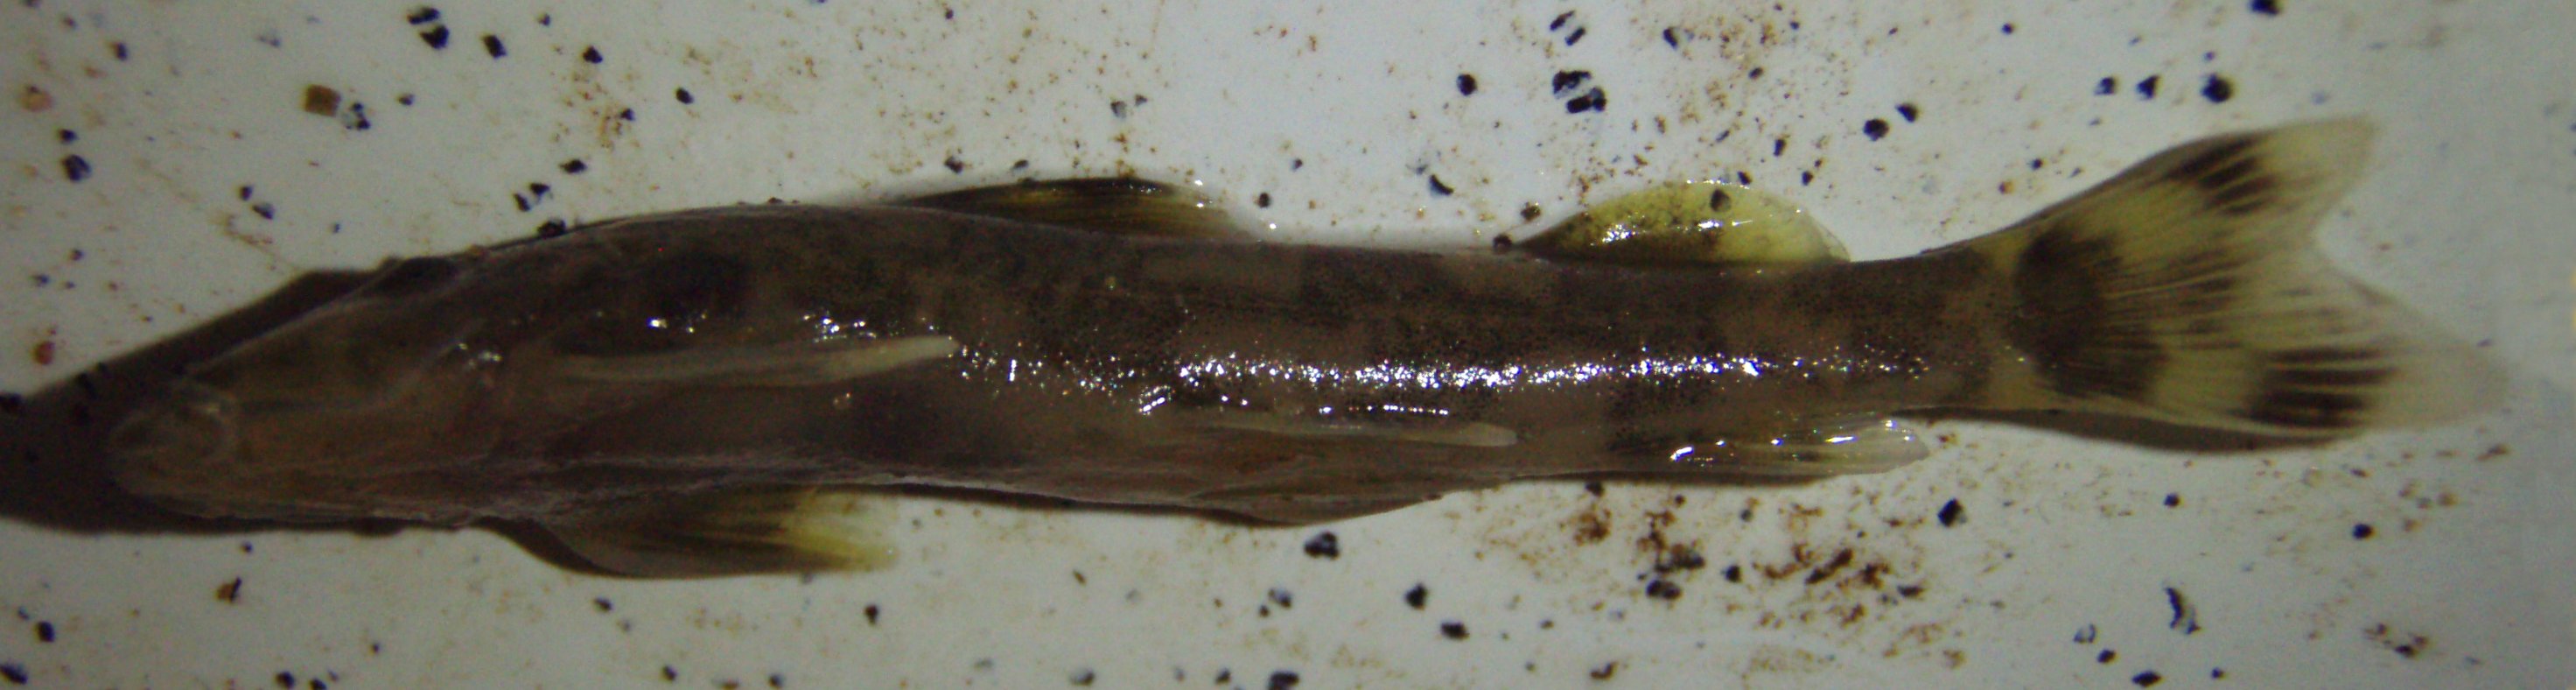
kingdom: Animalia
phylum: Chordata
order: Siluriformes
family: Amphiliidae
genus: Amphilius
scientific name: Amphilius
